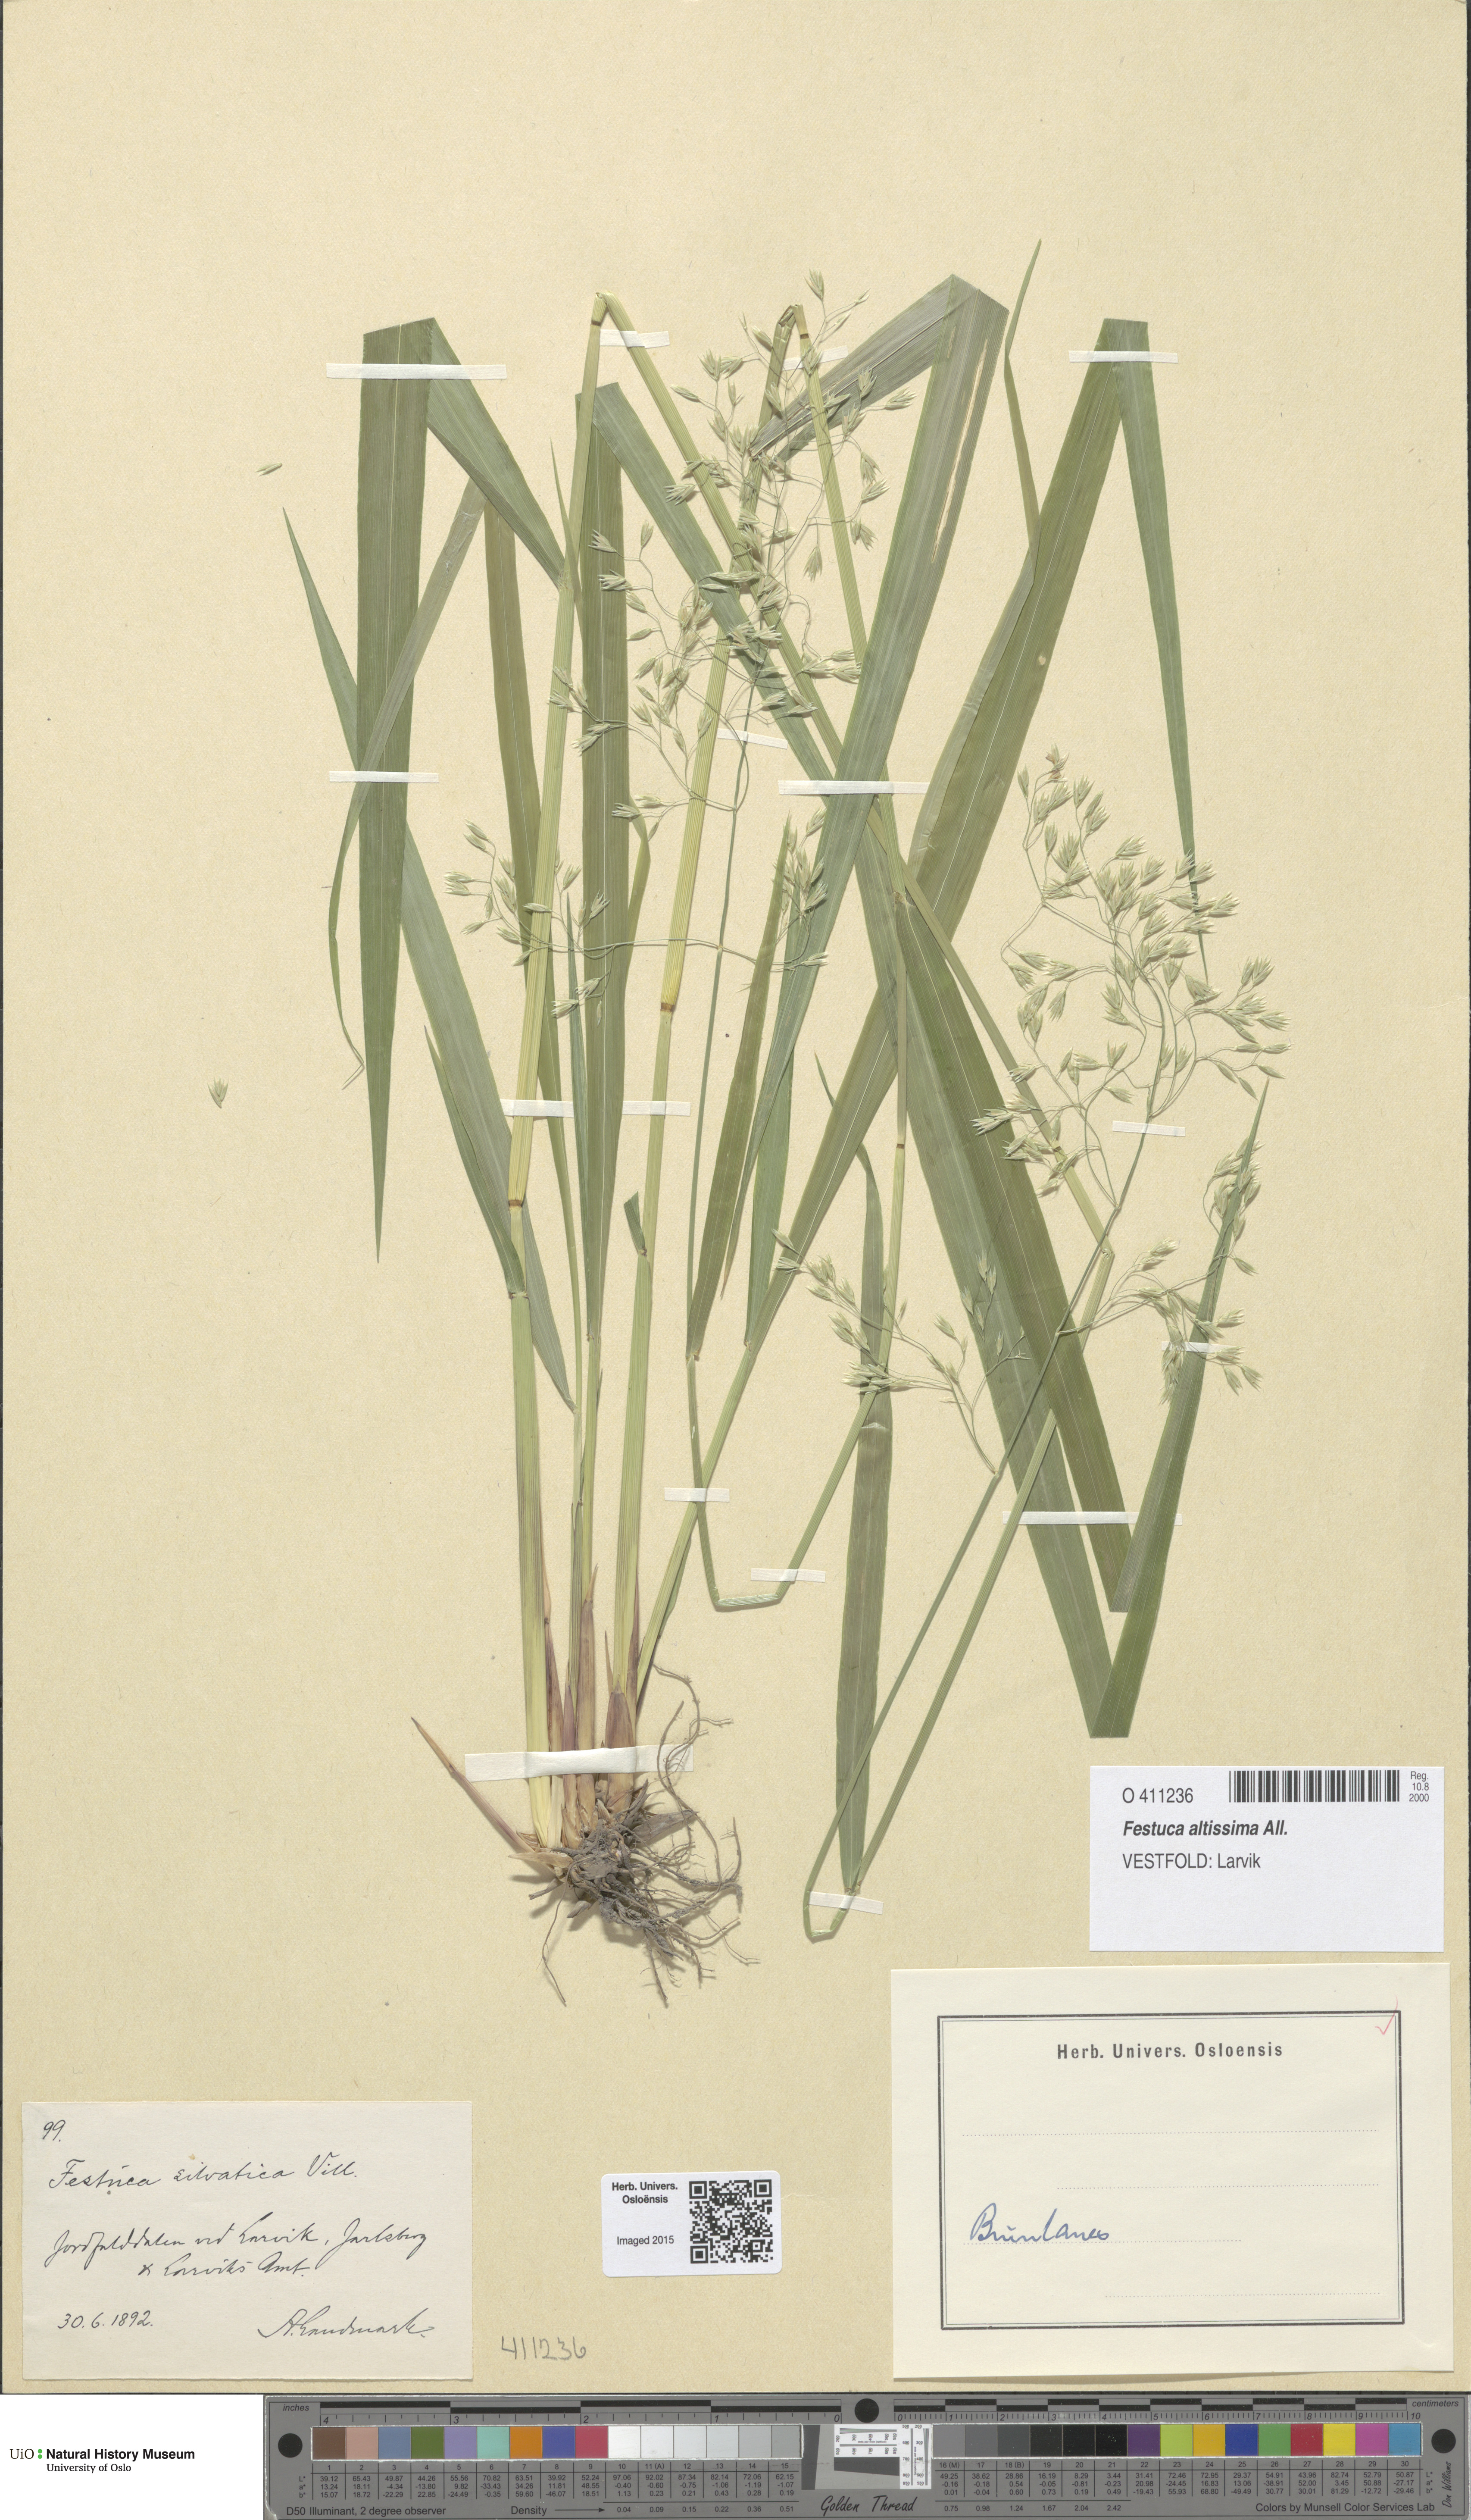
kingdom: Plantae
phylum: Tracheophyta
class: Liliopsida
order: Poales
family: Poaceae
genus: Festuca
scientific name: Festuca altissima
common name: Wood fescue
